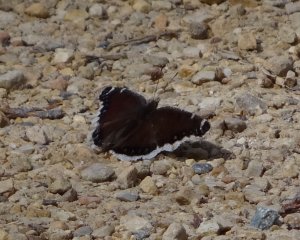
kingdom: Animalia
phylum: Arthropoda
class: Insecta
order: Lepidoptera
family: Nymphalidae
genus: Nymphalis
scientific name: Nymphalis antiopa
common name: Mourning Cloak
